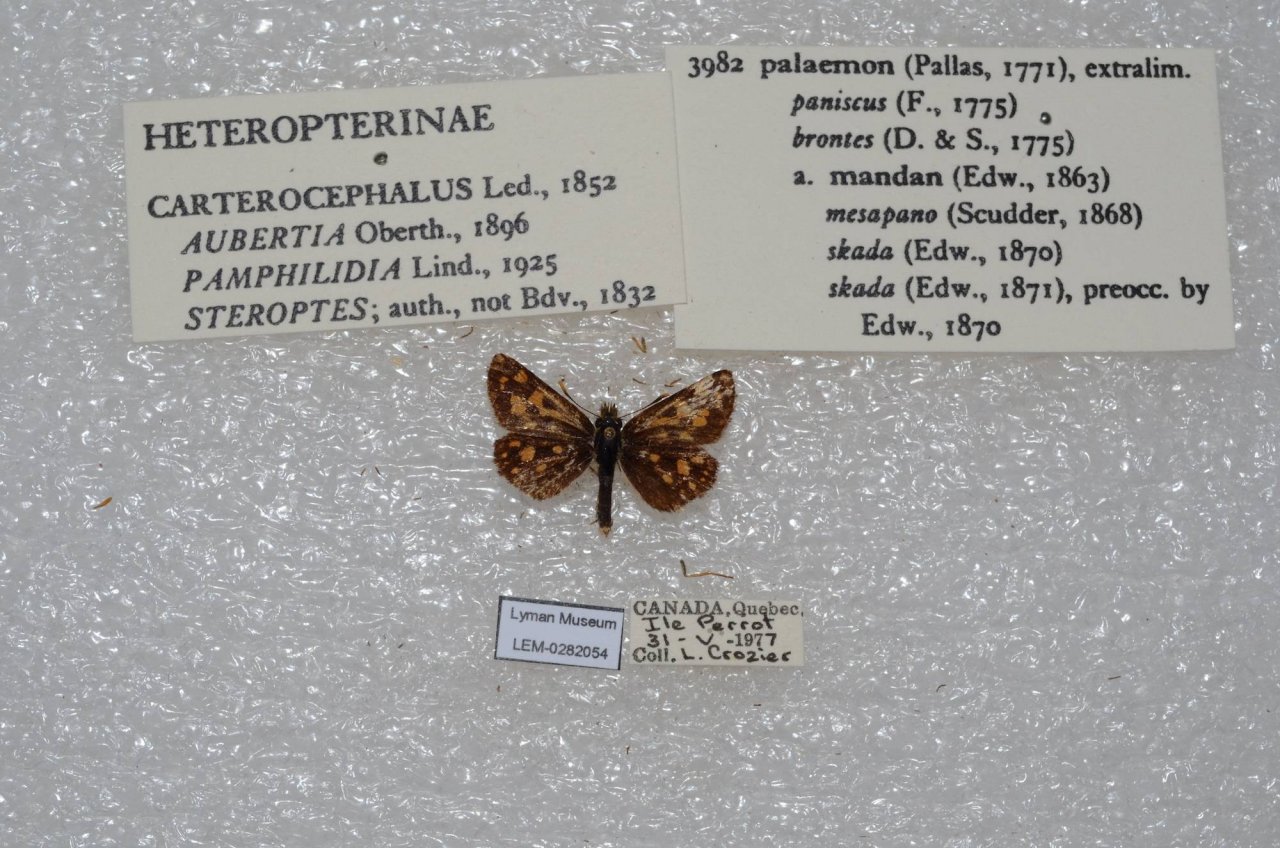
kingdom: Animalia
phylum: Arthropoda
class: Insecta
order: Lepidoptera
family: Hesperiidae
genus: Carterocephalus
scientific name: Carterocephalus palaemon
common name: Chequered Skipper
